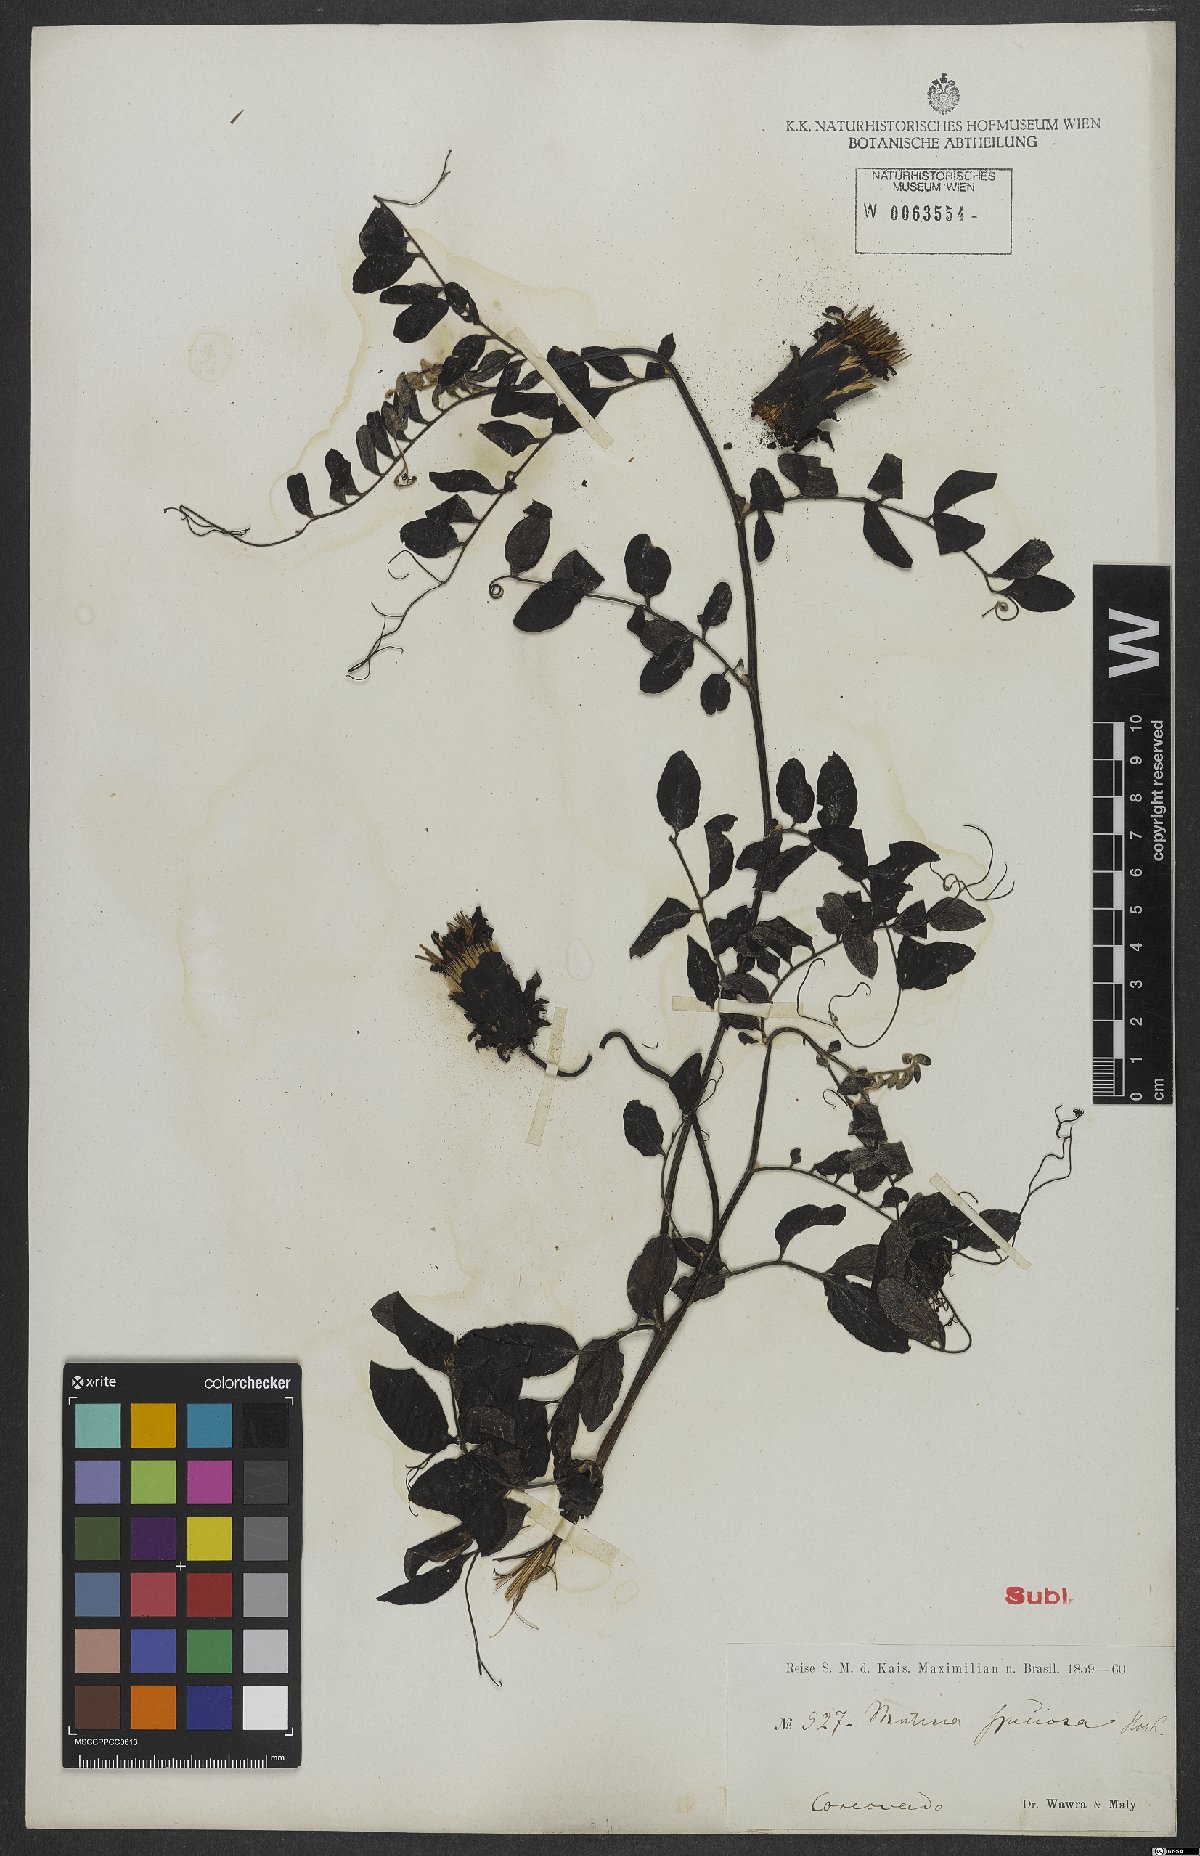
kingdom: Plantae
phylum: Tracheophyta
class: Magnoliopsida
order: Asterales
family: Asteraceae
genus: Mutisia
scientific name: Mutisia speciosa
